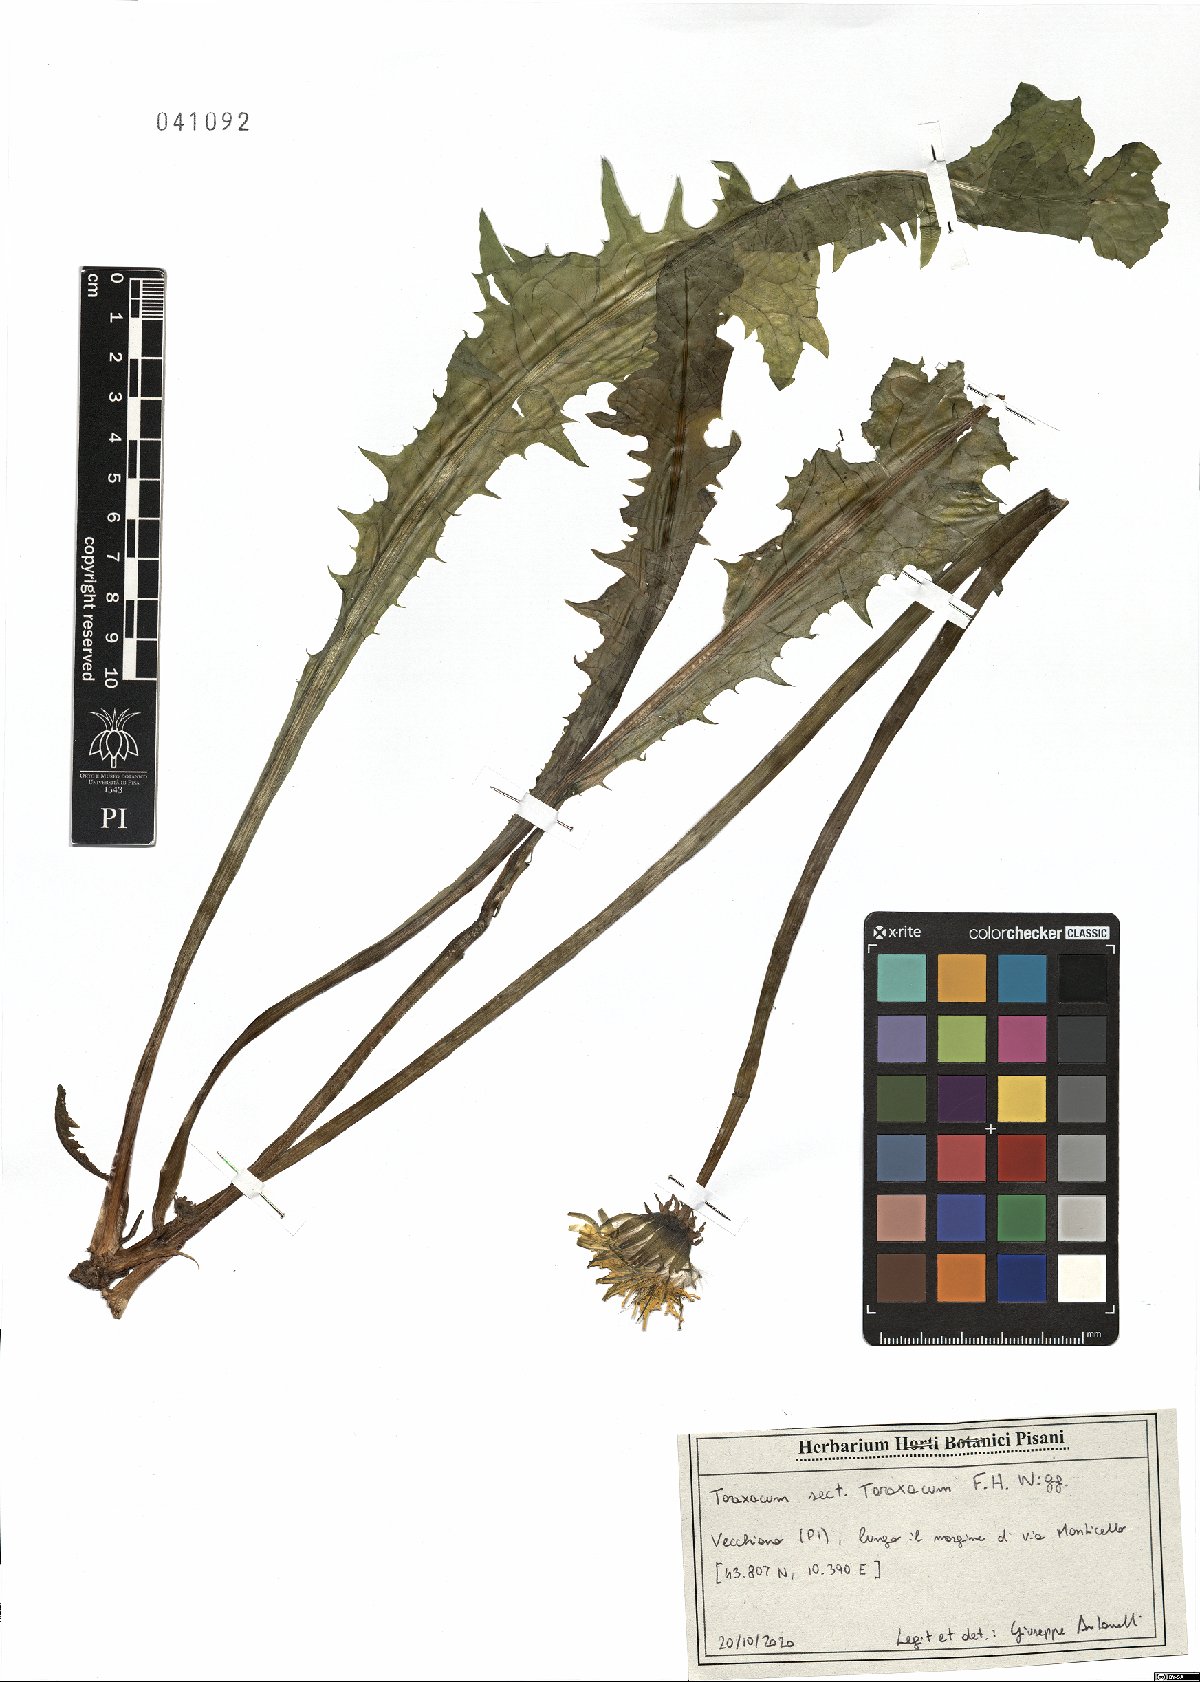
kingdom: Plantae
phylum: Tracheophyta
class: Magnoliopsida
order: Asterales
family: Asteraceae
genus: Taraxacum
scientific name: Taraxacum officinale
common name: Common dandelion
